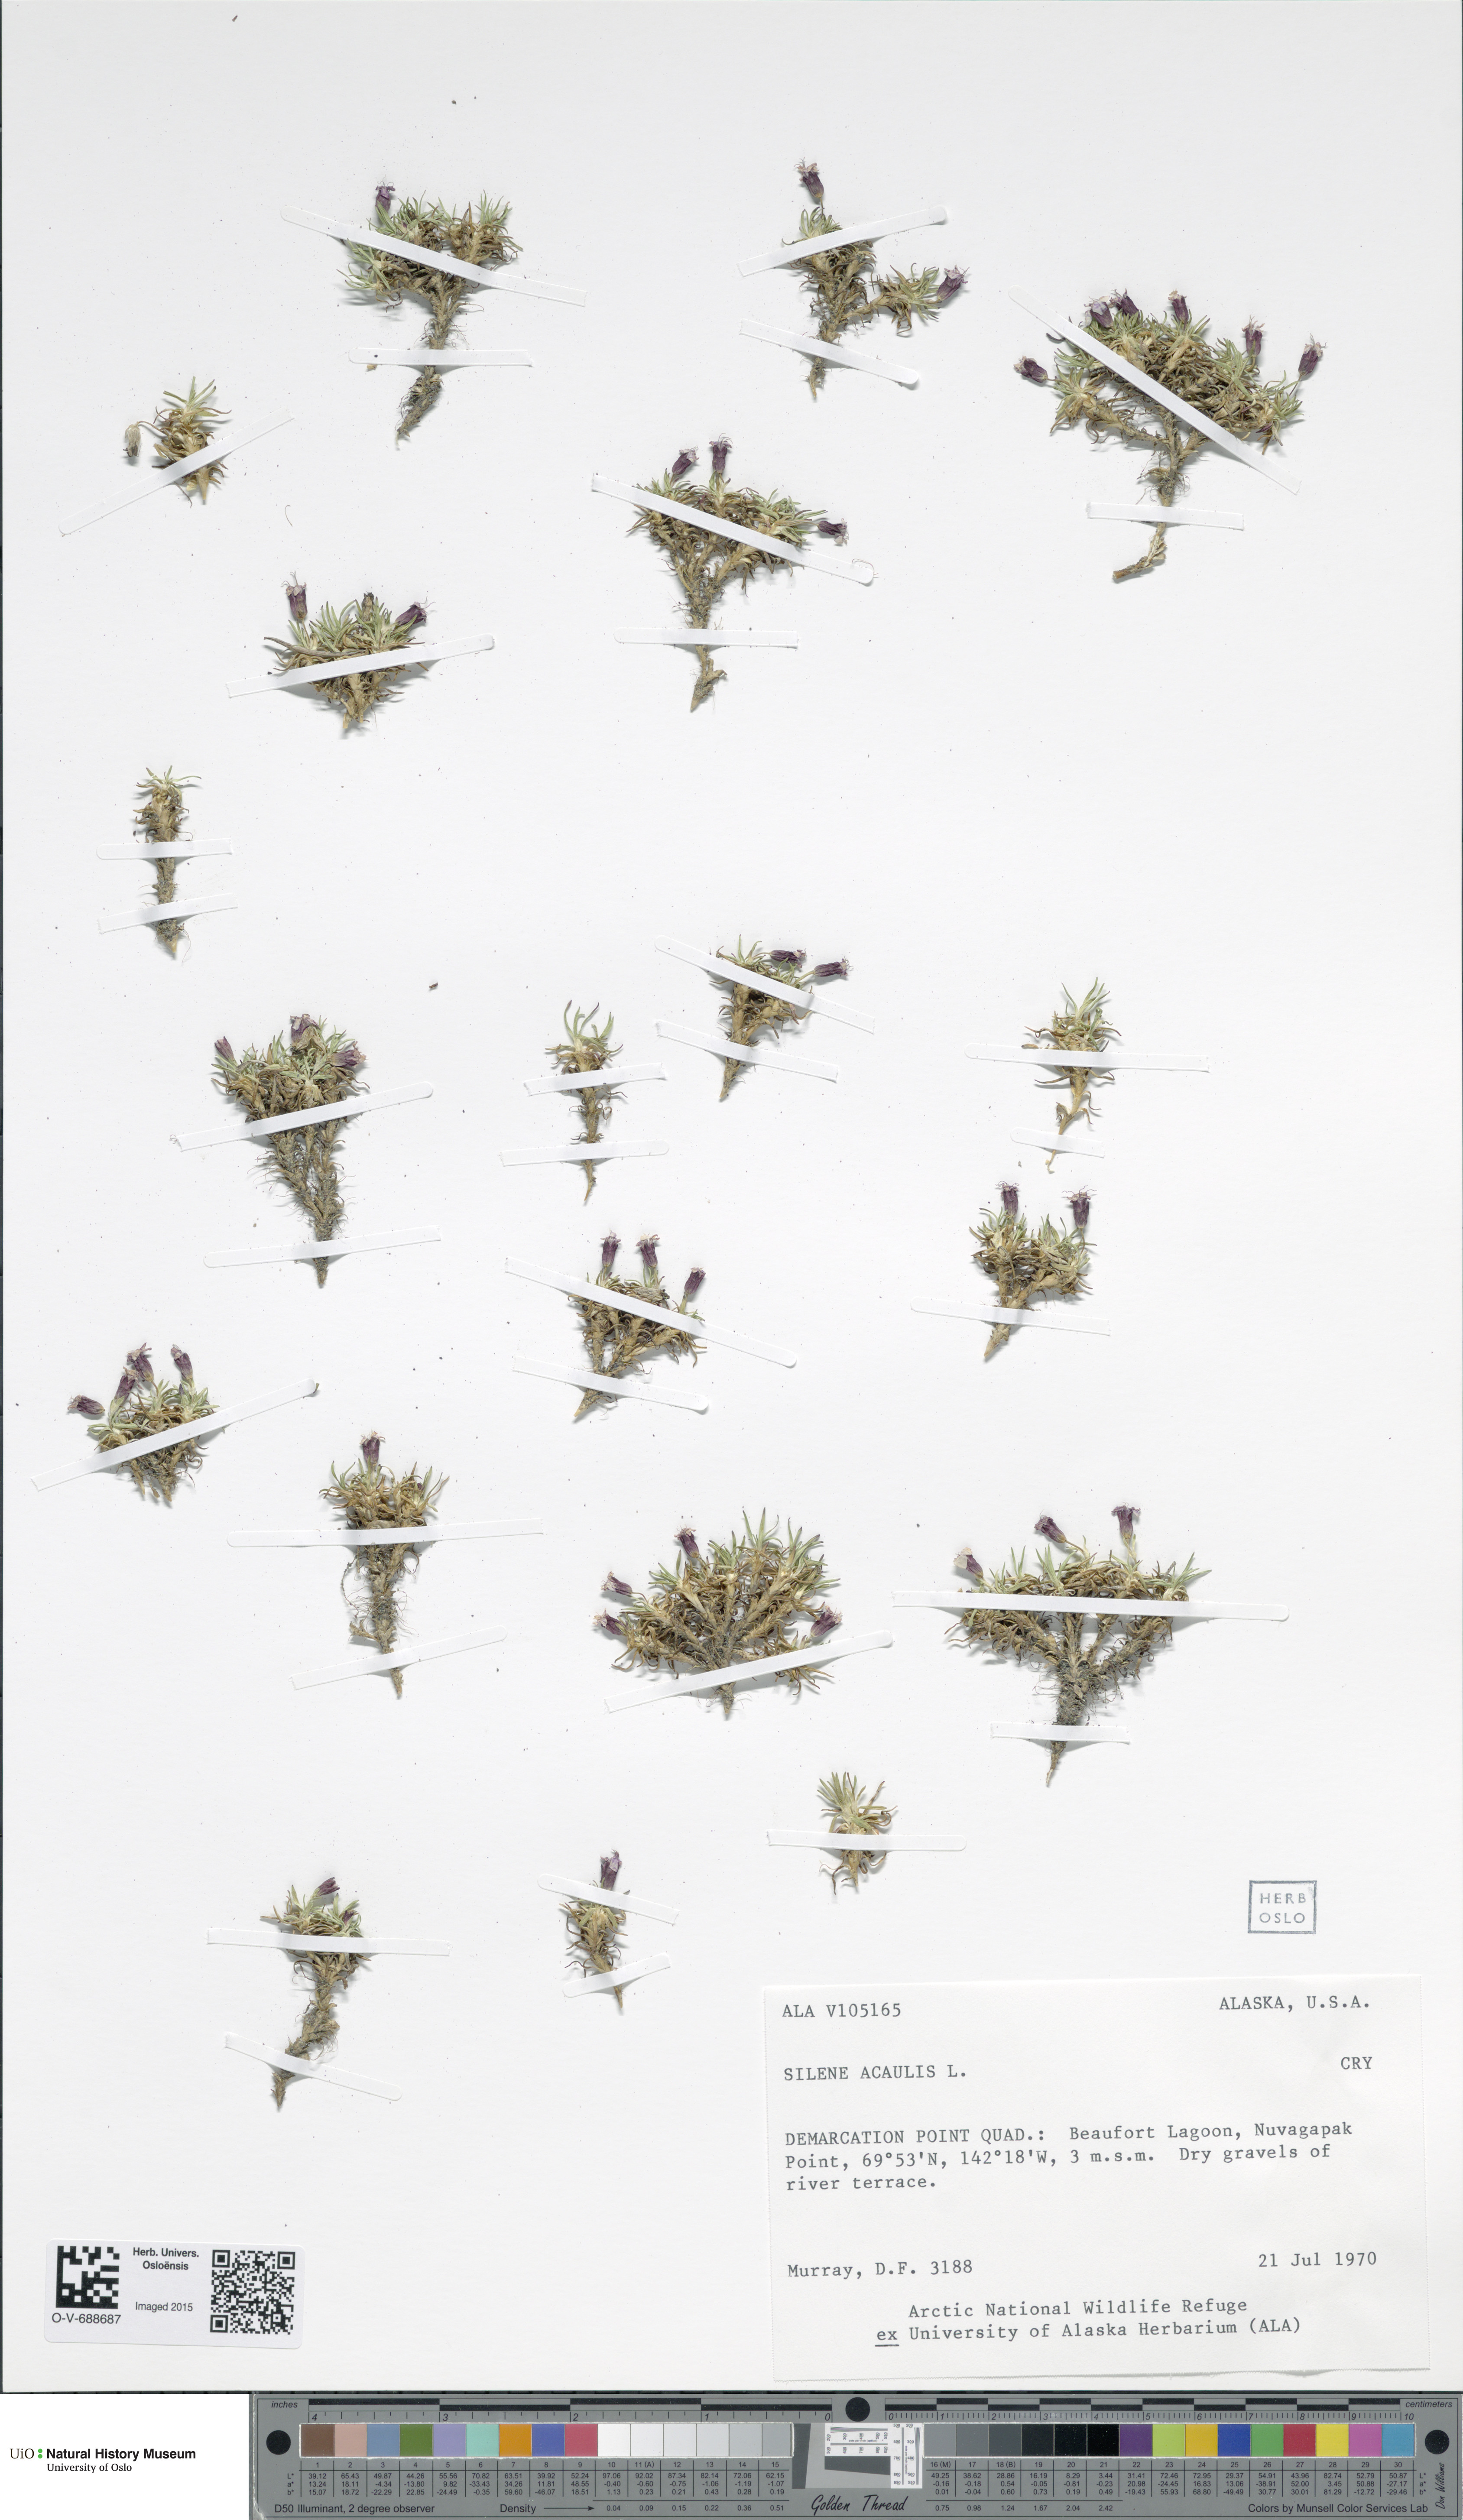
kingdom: Plantae
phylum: Tracheophyta
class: Magnoliopsida
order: Caryophyllales
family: Caryophyllaceae
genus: Silene
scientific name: Silene acaulis
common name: Moss campion
